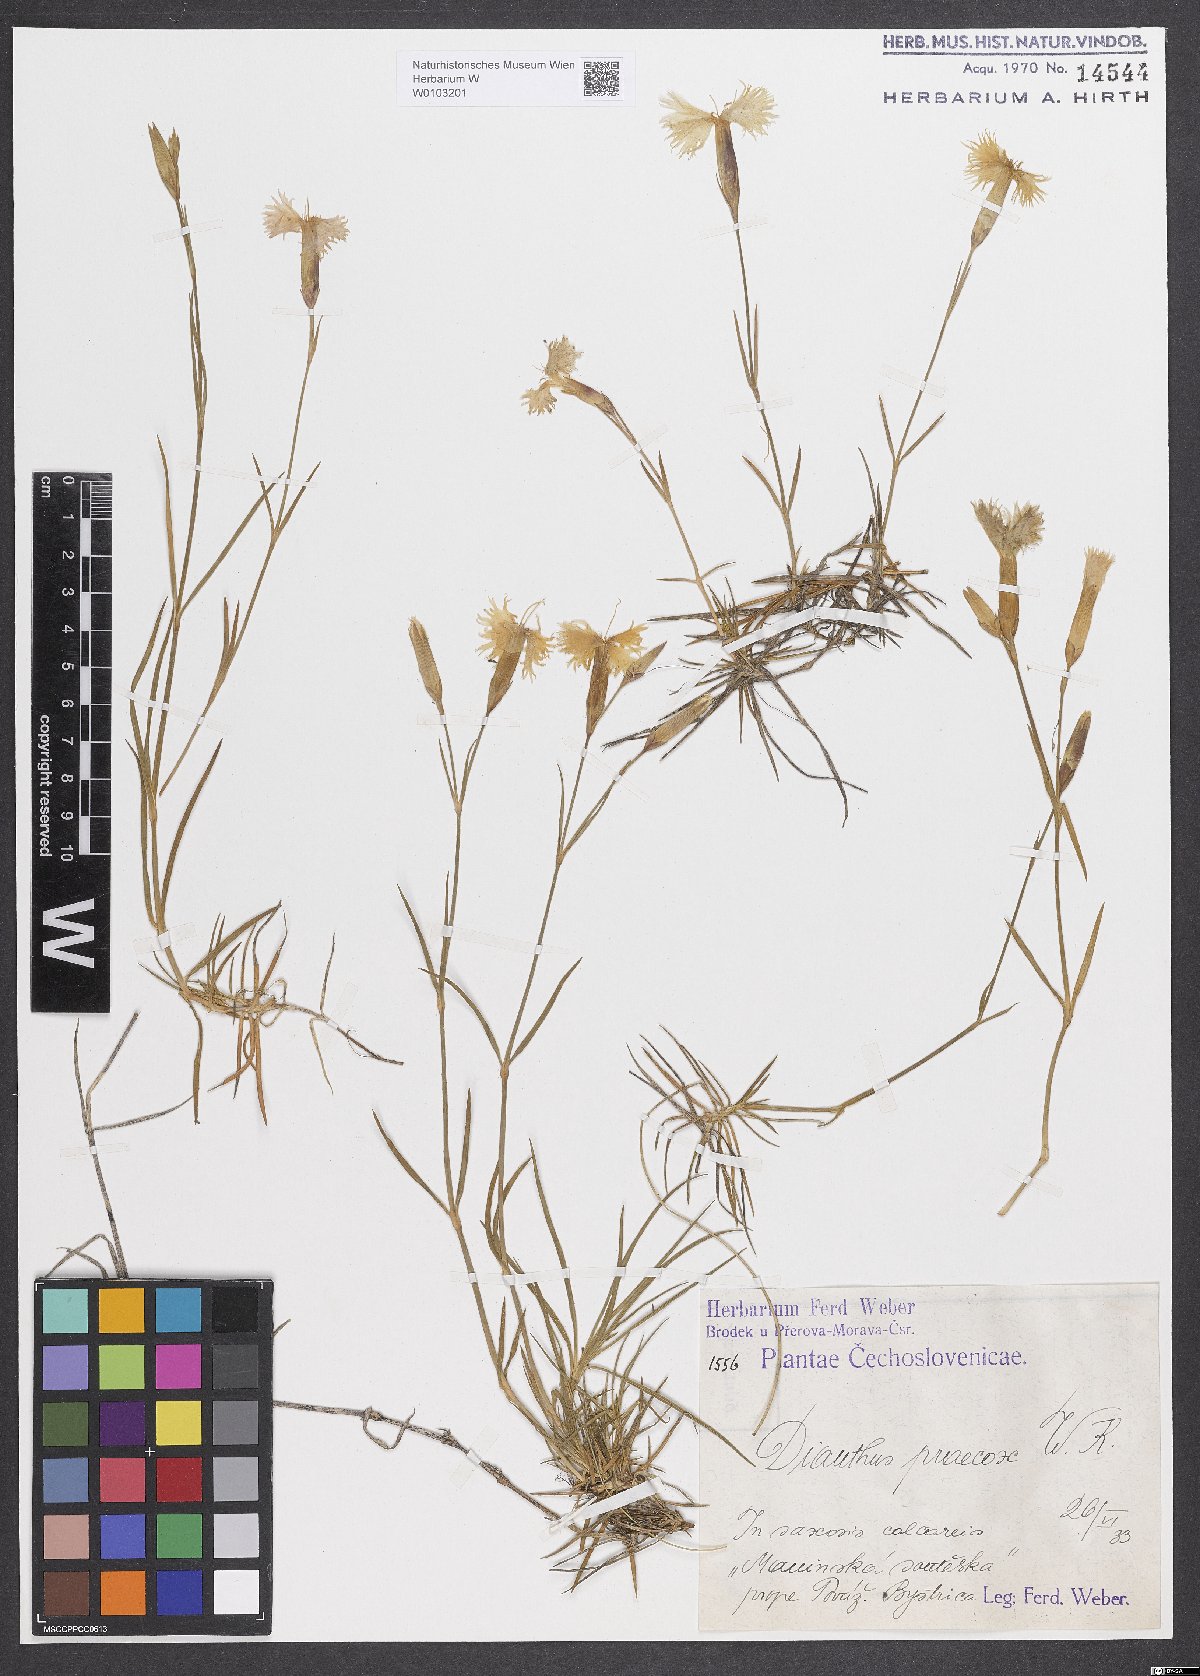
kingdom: Plantae
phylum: Tracheophyta
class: Magnoliopsida
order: Caryophyllales
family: Caryophyllaceae
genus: Dianthus
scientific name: Dianthus arenarius
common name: Stone pink
